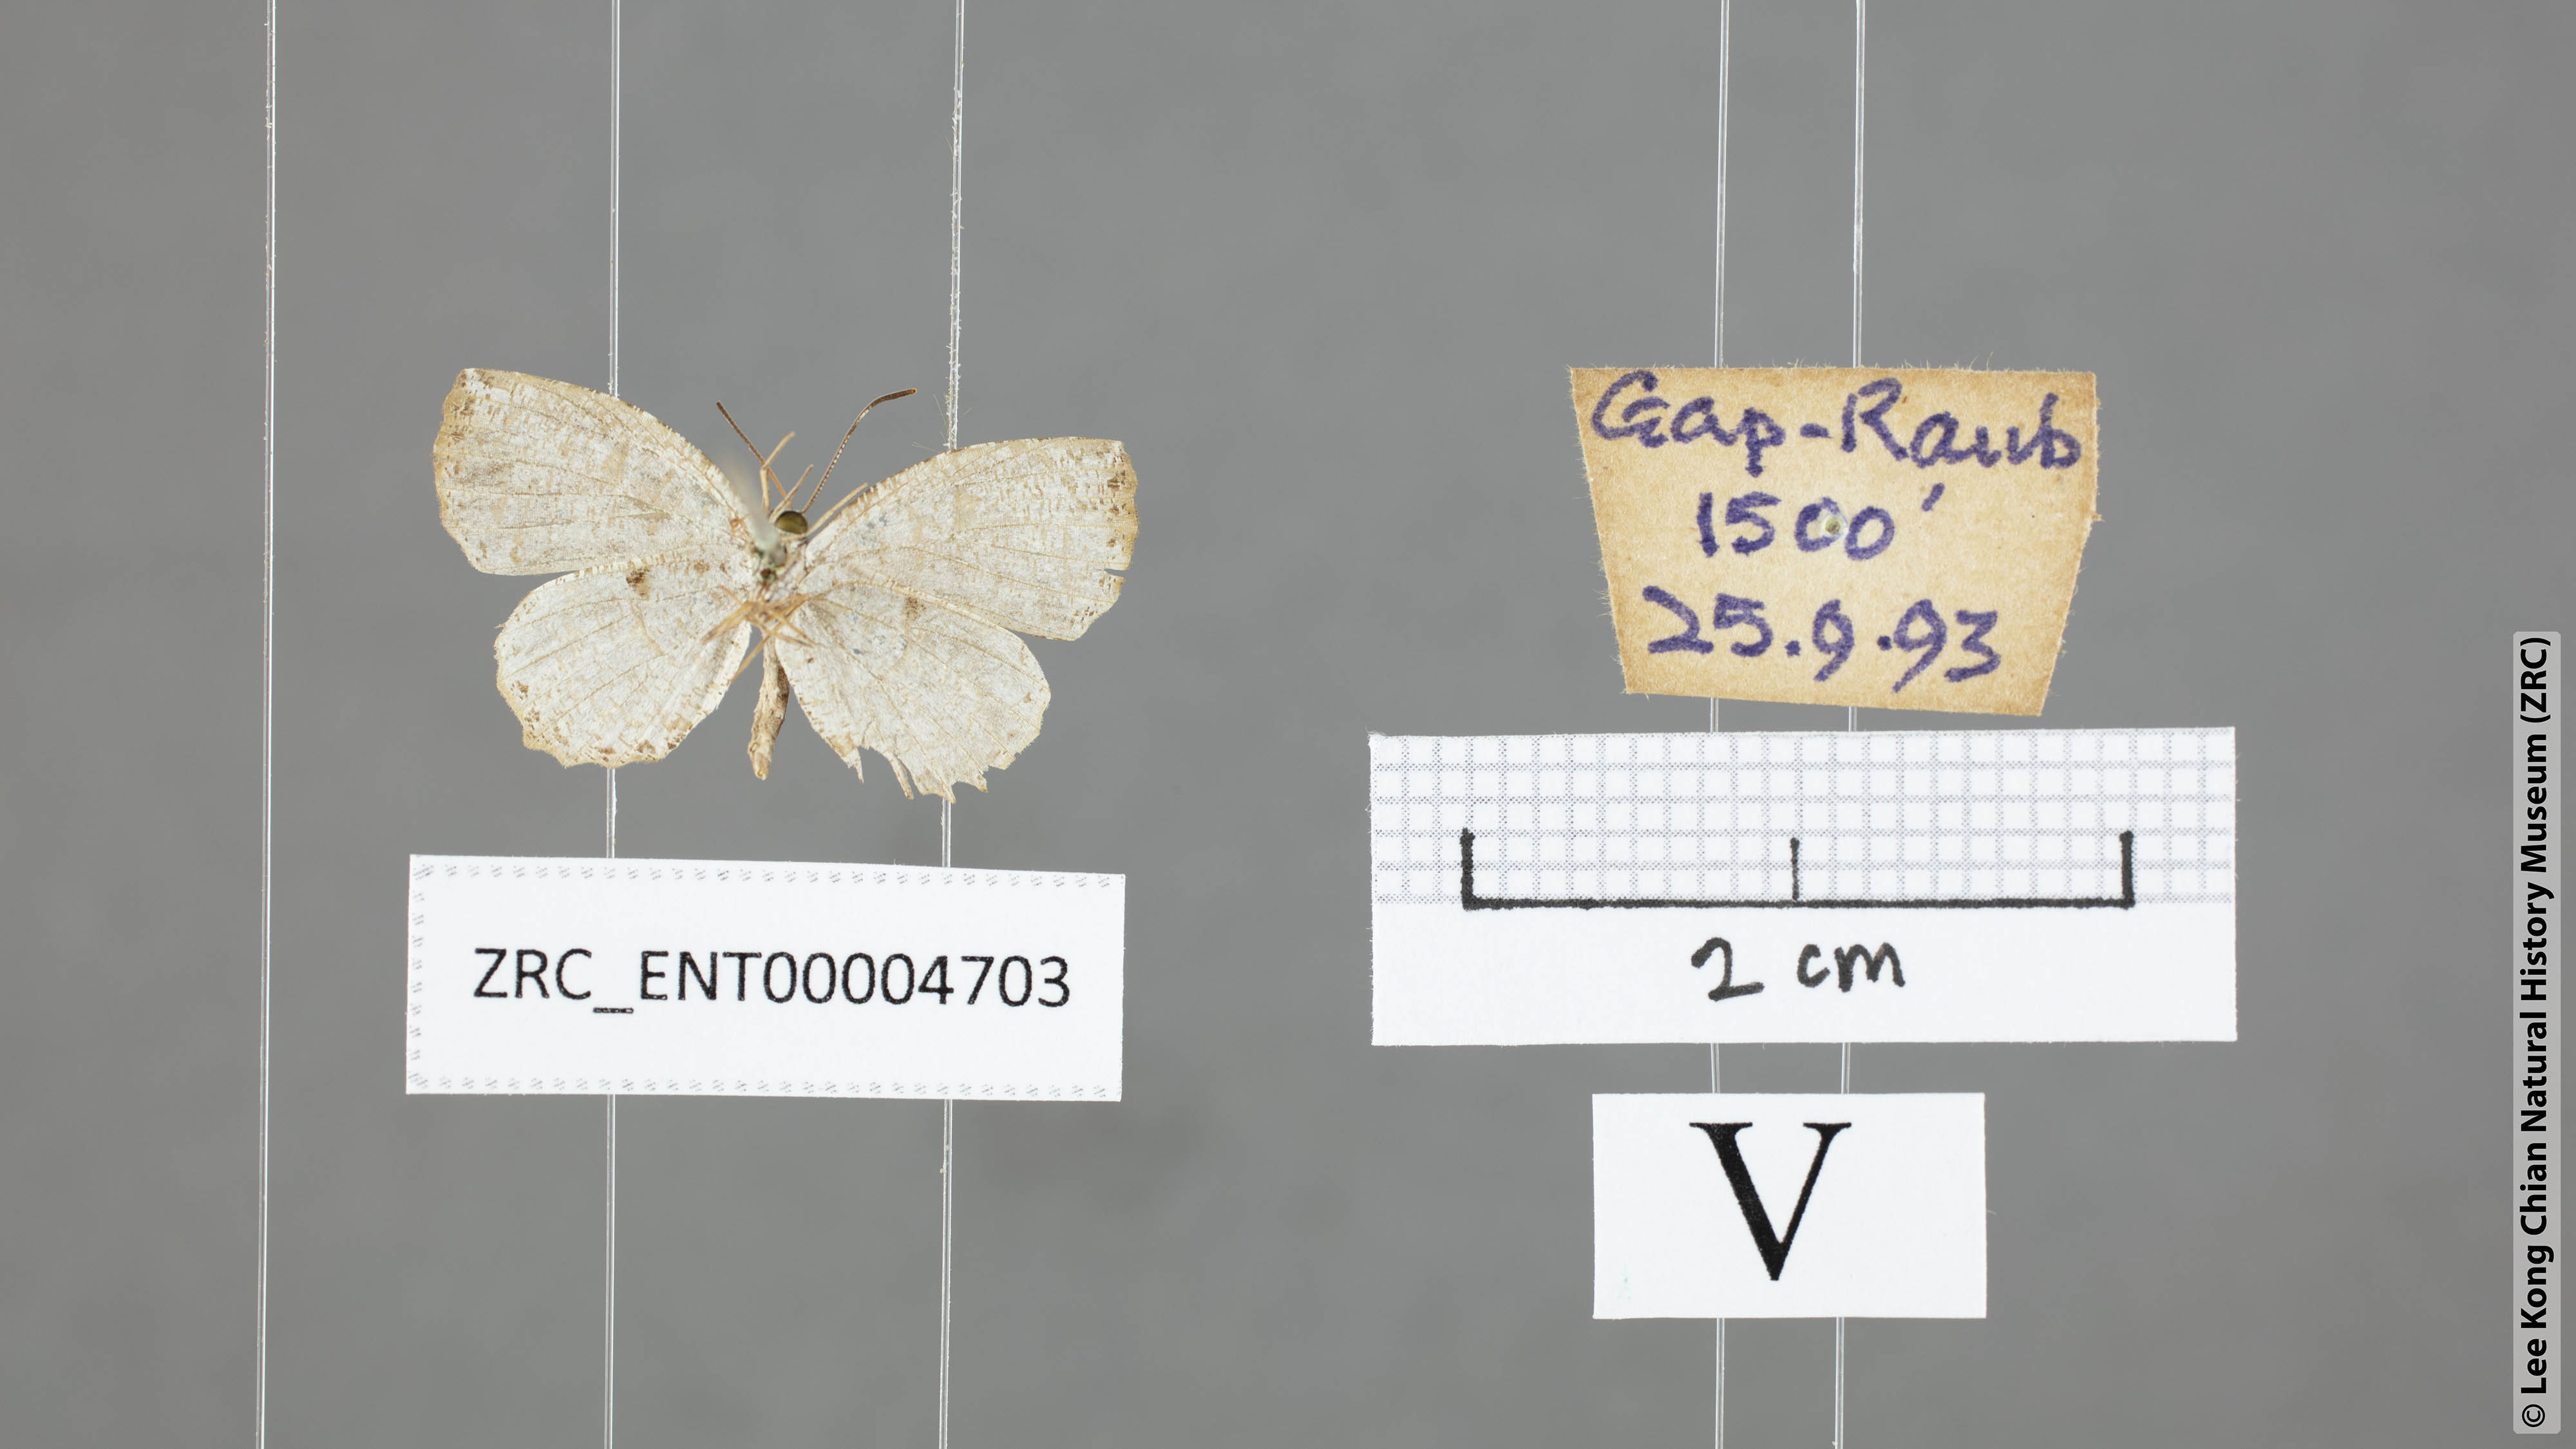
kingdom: Animalia
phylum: Arthropoda
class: Insecta
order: Lepidoptera
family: Lycaenidae
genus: Allotinus
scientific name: Allotinus substrigosa
